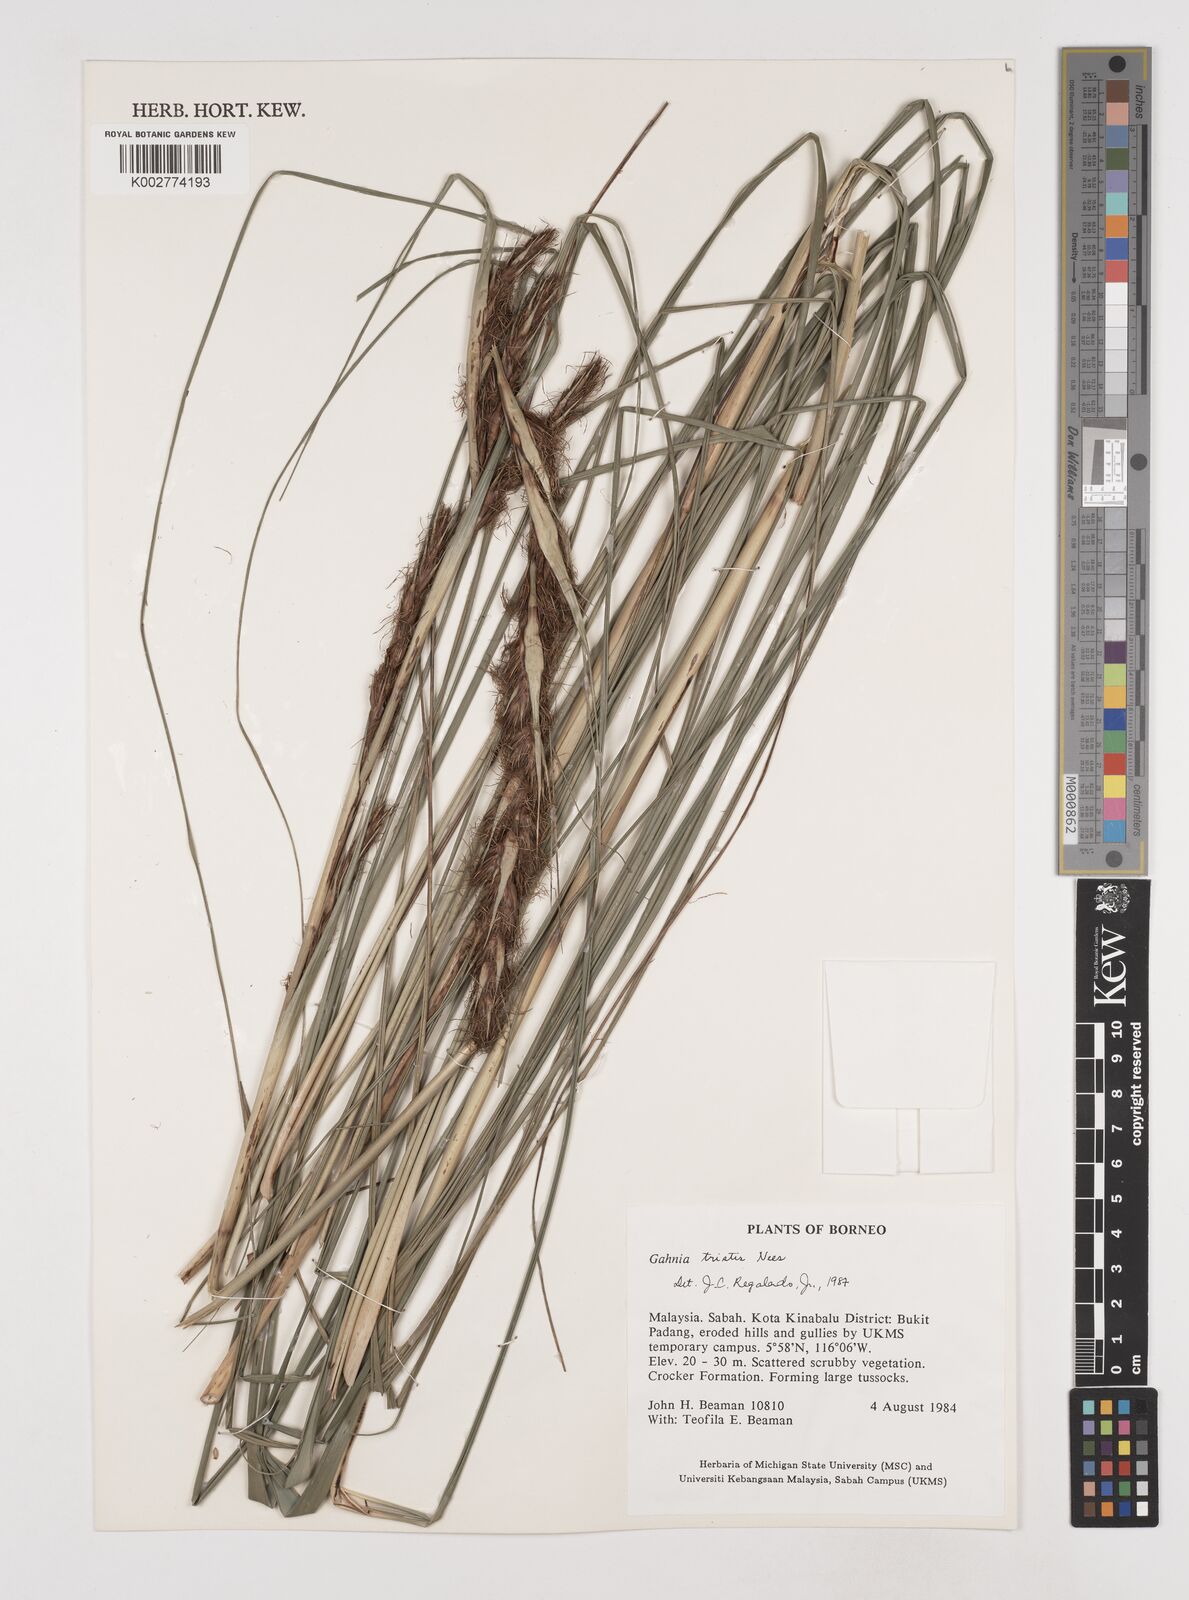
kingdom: Plantae
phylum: Tracheophyta
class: Liliopsida
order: Poales
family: Cyperaceae
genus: Gahnia
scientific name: Gahnia tristis
